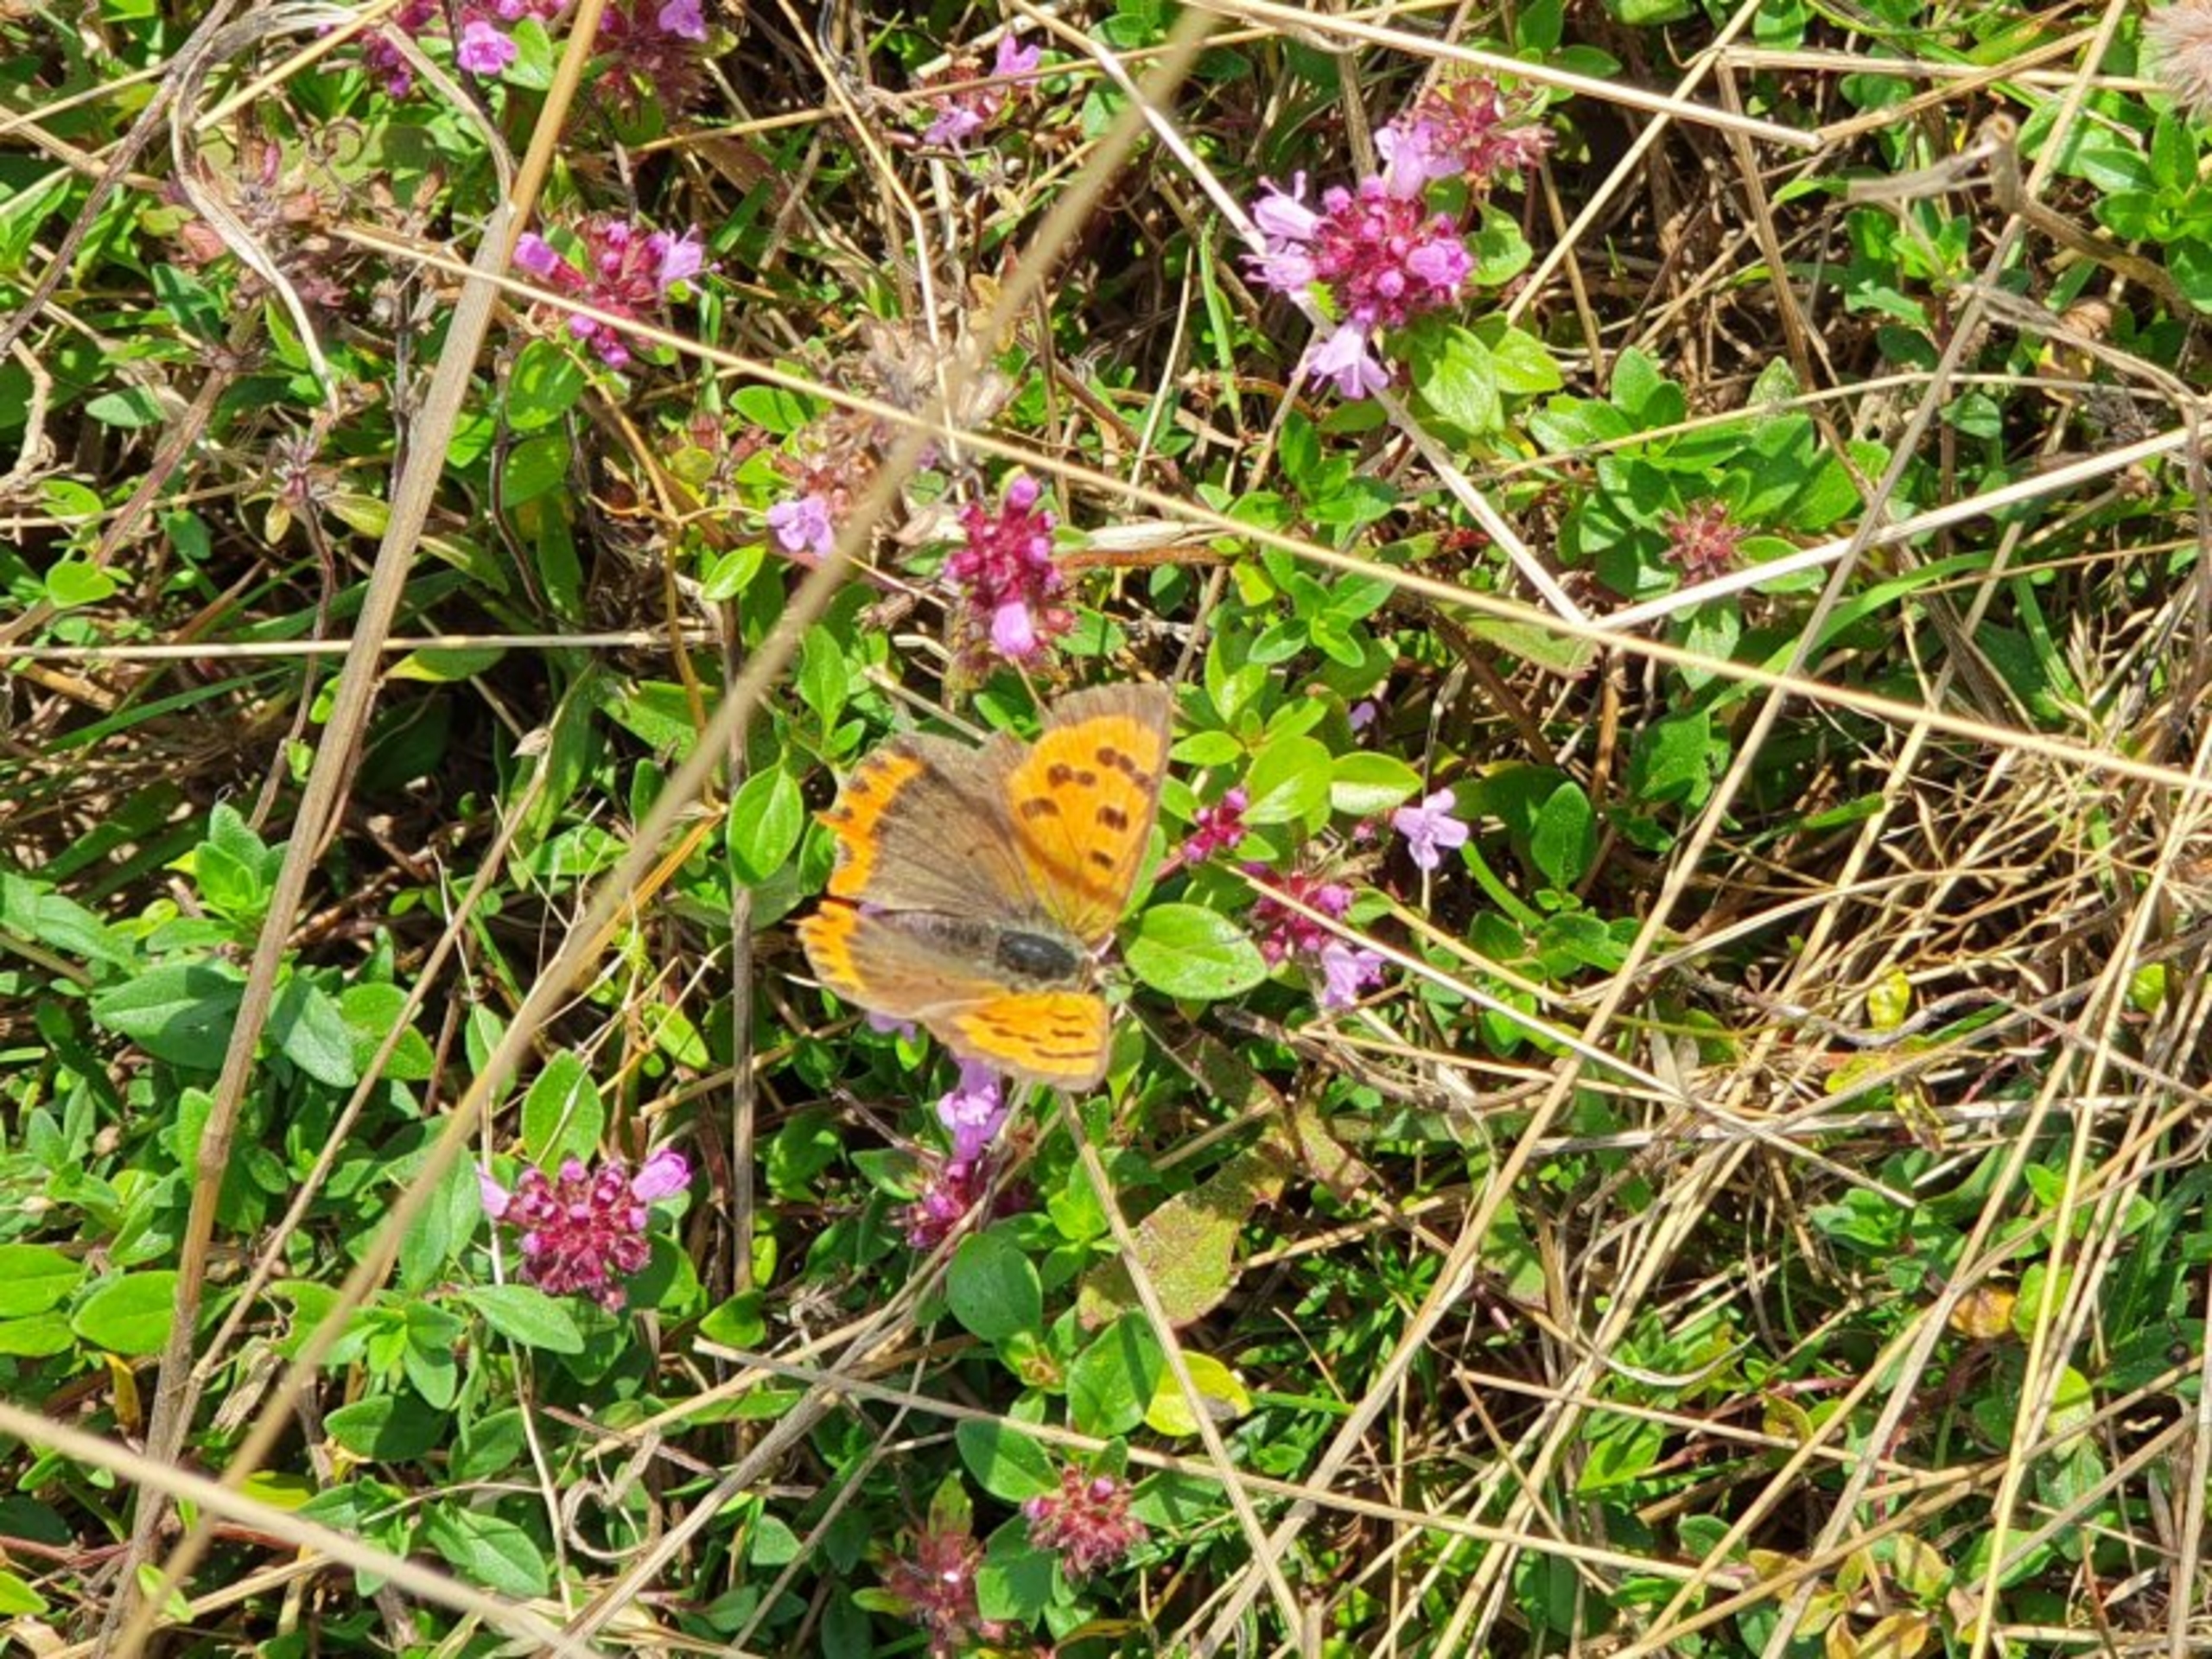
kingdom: Animalia
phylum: Arthropoda
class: Insecta
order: Lepidoptera
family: Lycaenidae
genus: Lycaena
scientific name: Lycaena phlaeas
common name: Lille ildfugl
